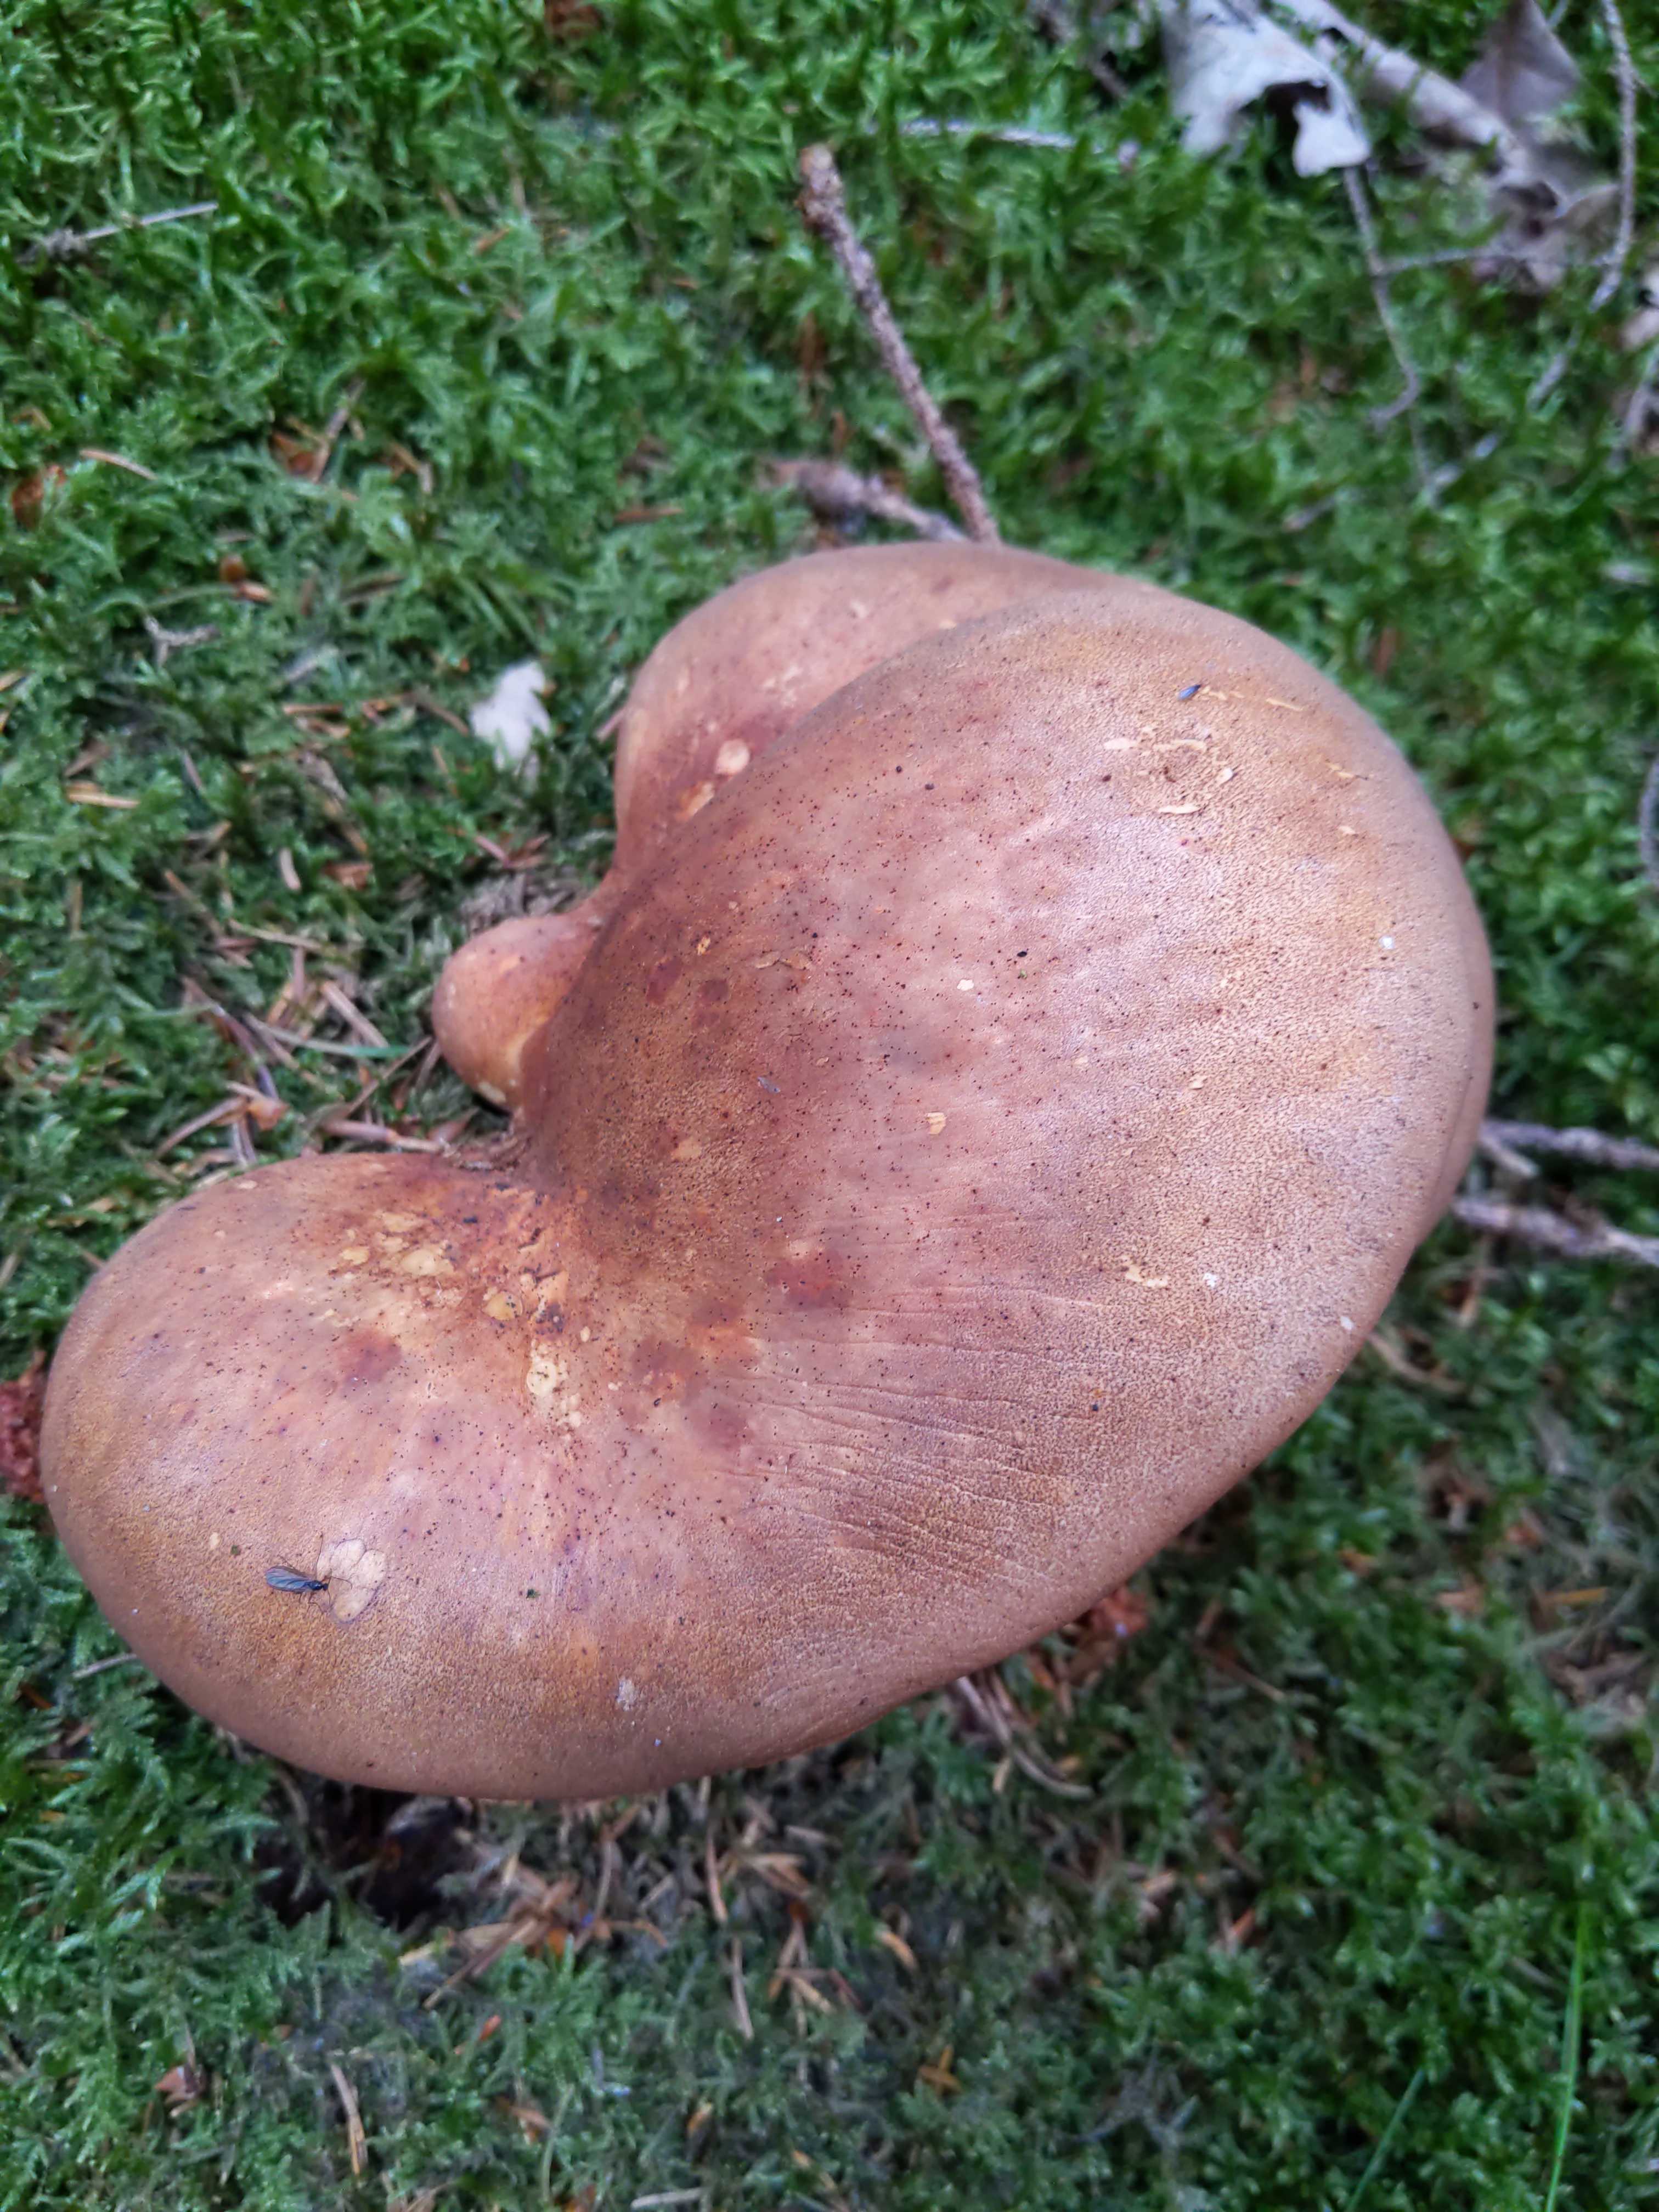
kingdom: Fungi
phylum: Basidiomycota
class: Agaricomycetes
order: Boletales
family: Tapinellaceae
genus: Tapinella
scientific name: Tapinella atrotomentosa
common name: sortfiltet viftesvamp
